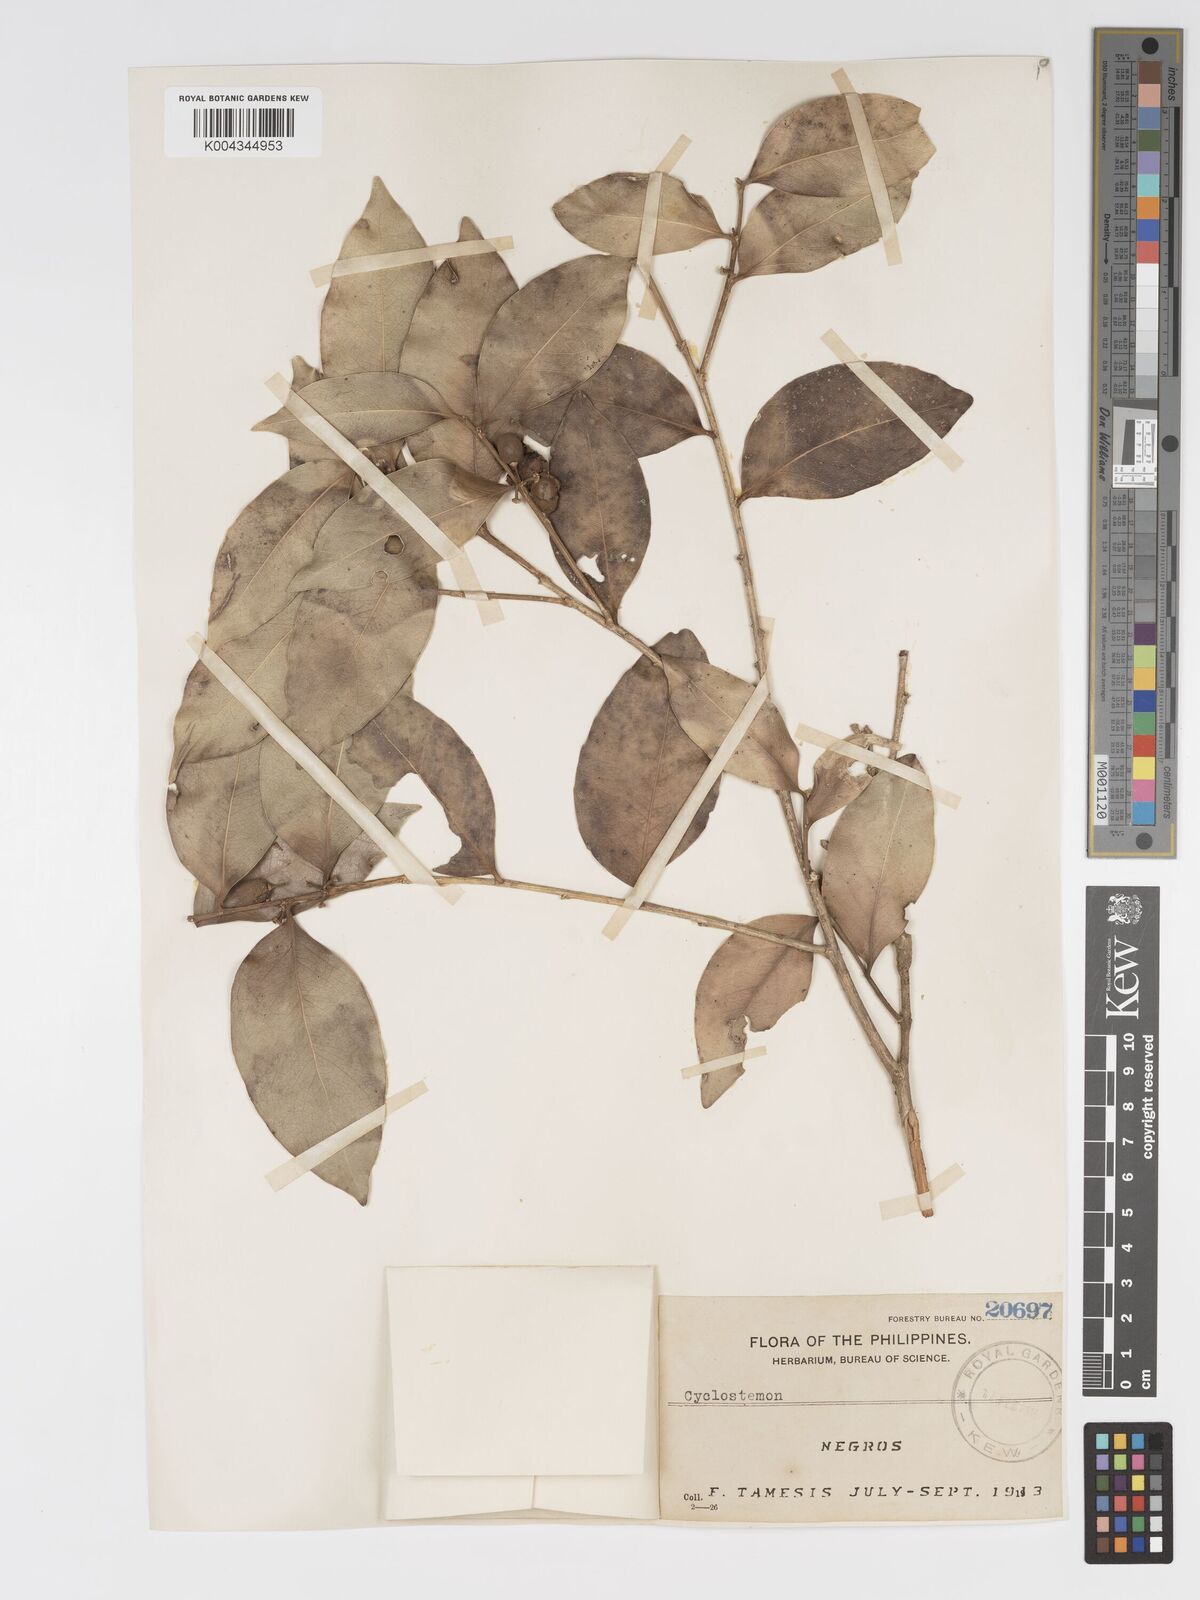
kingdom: Plantae
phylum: Tracheophyta
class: Magnoliopsida
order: Malpighiales
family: Putranjivaceae
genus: Drypetes
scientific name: Drypetes littoralis
